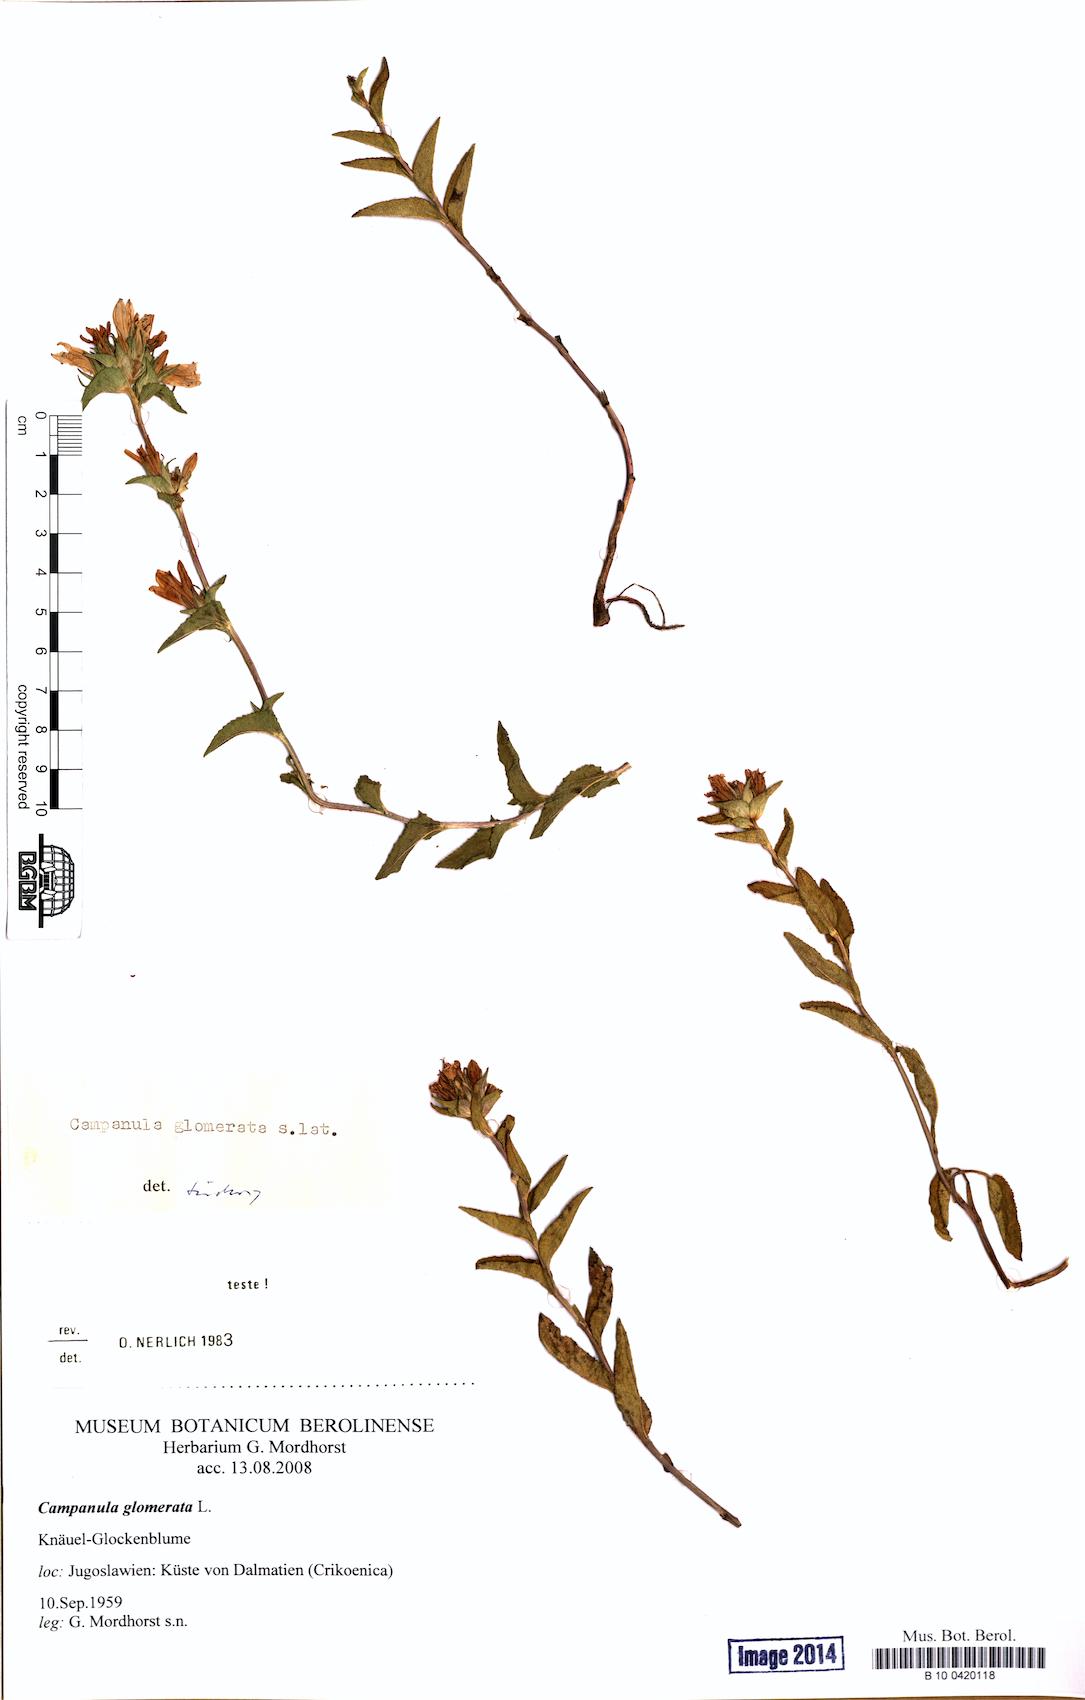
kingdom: Plantae
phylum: Tracheophyta
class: Magnoliopsida
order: Asterales
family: Campanulaceae
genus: Campanula
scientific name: Campanula glomerata
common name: Clustered bellflower
